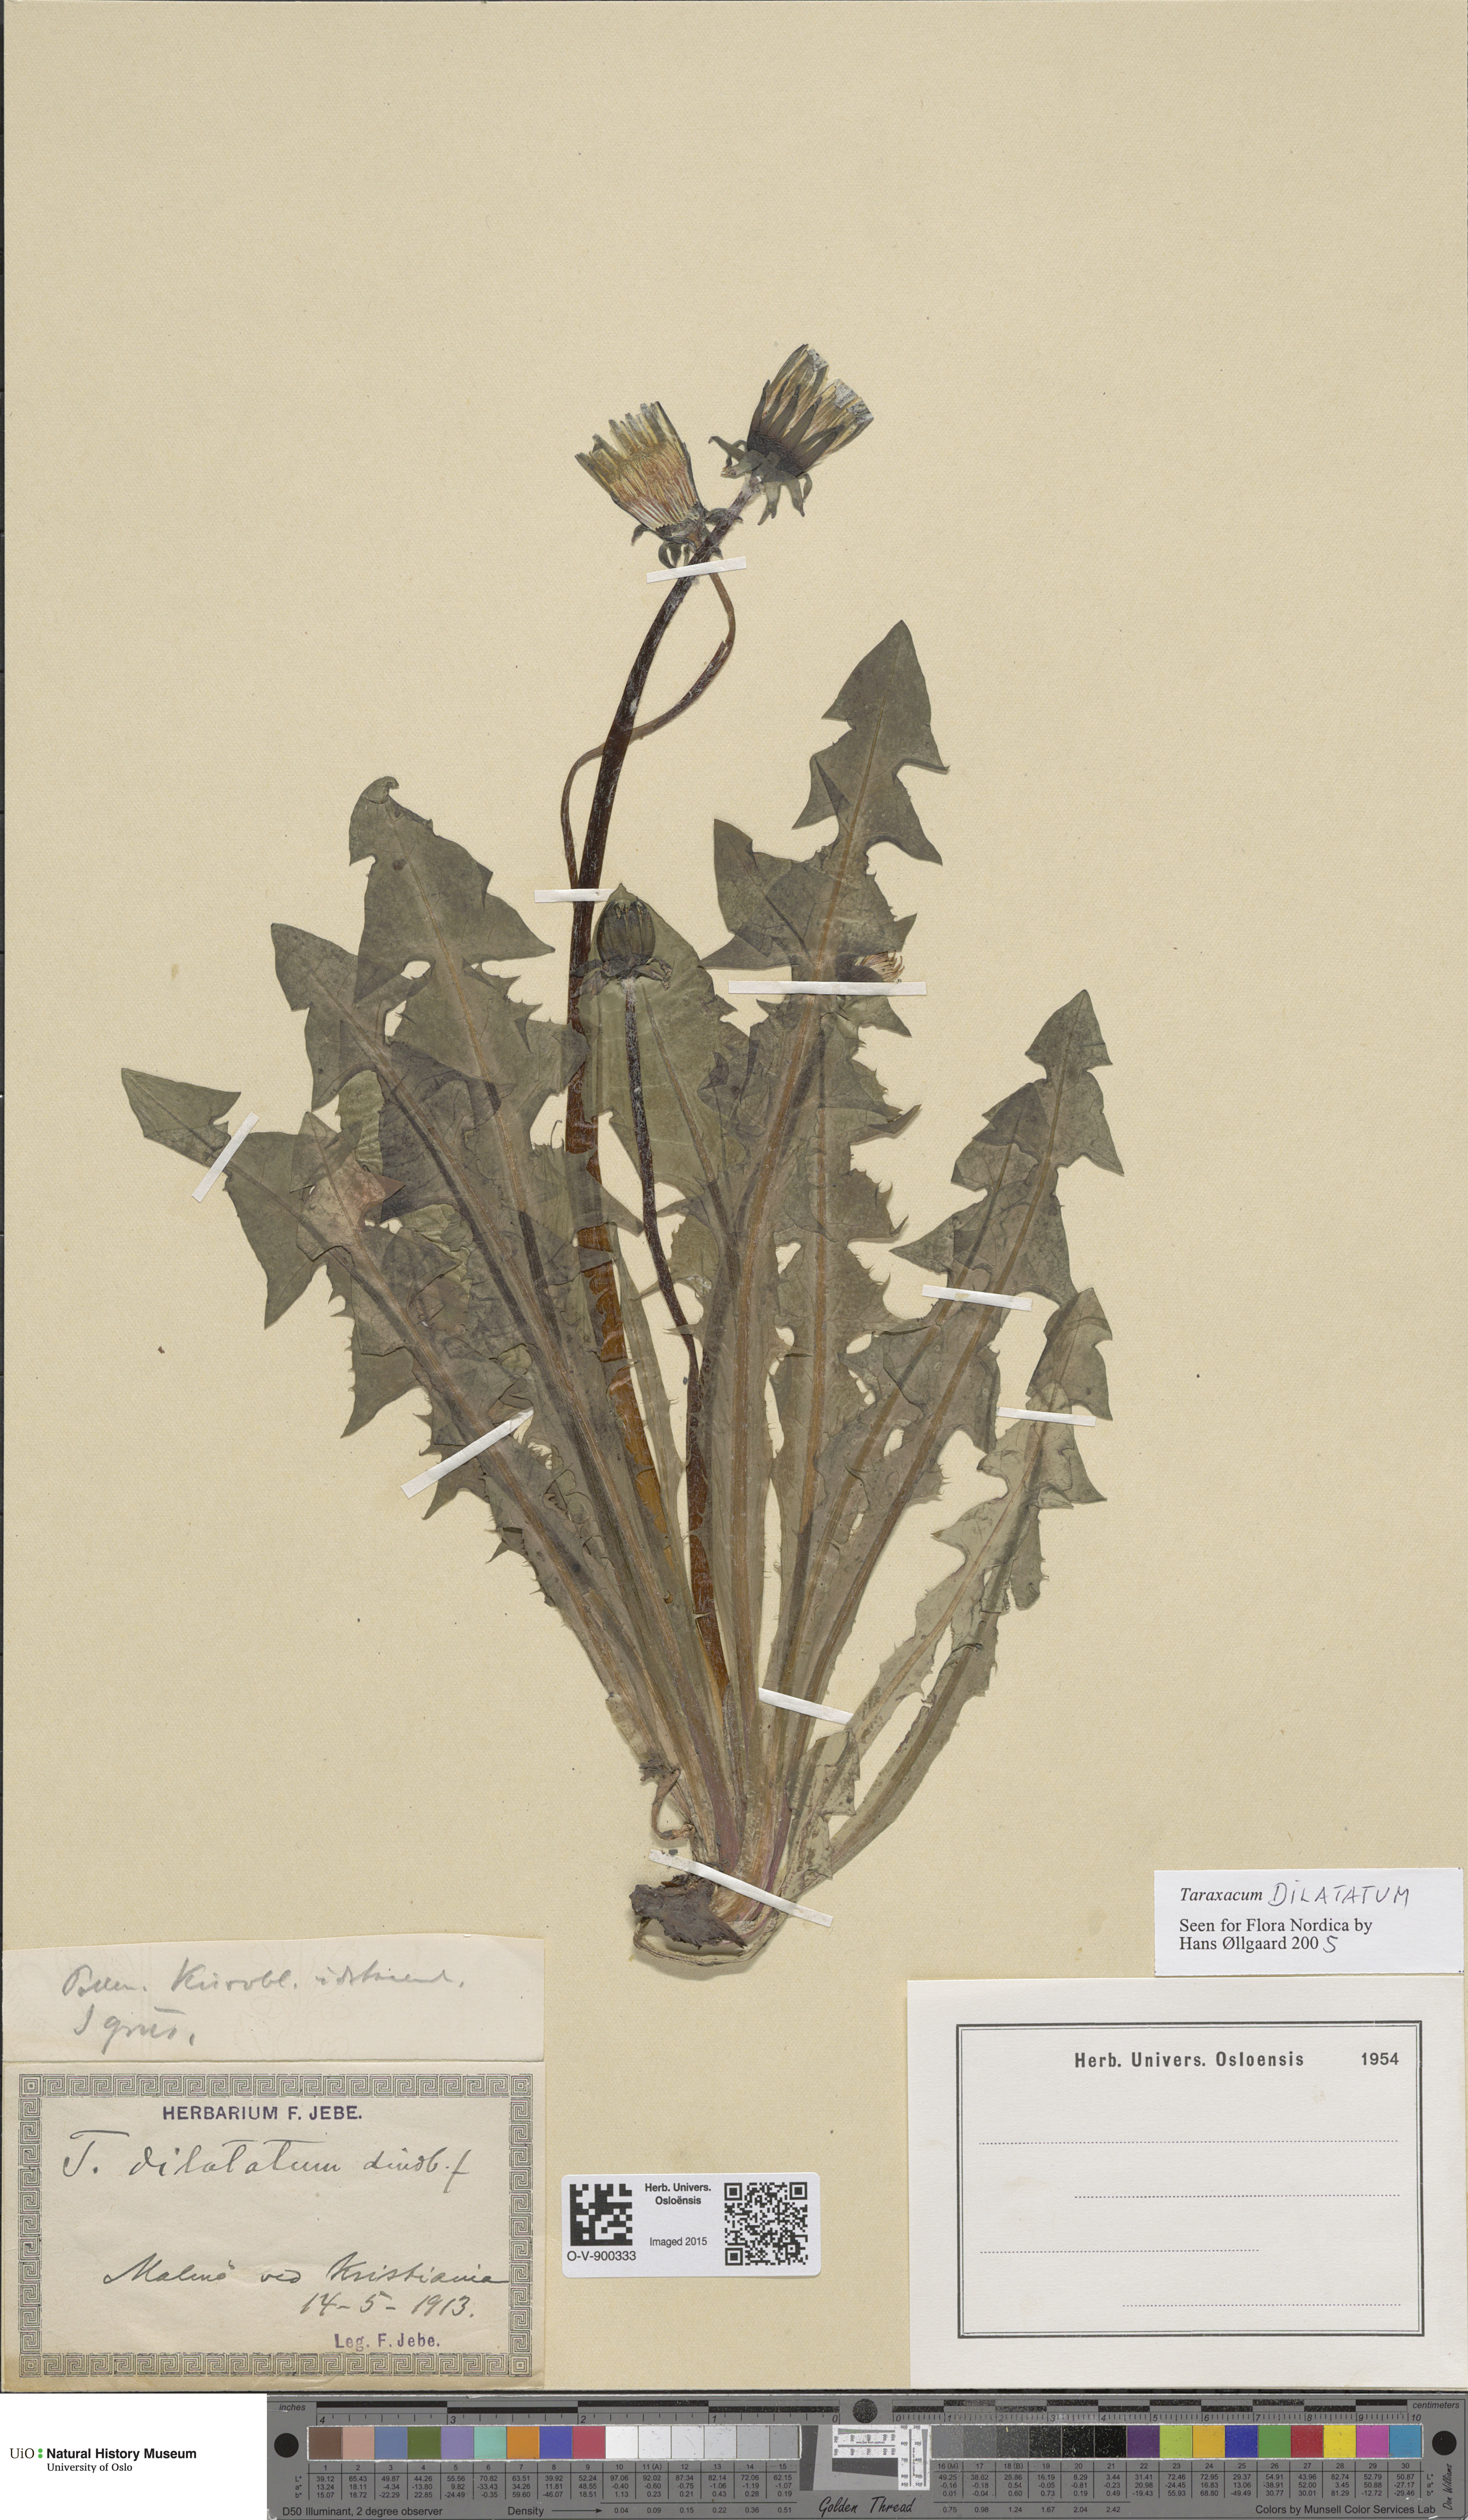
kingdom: Plantae
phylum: Tracheophyta
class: Magnoliopsida
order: Asterales
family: Asteraceae
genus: Taraxacum
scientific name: Taraxacum dilatatum
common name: Grassland dandelion
